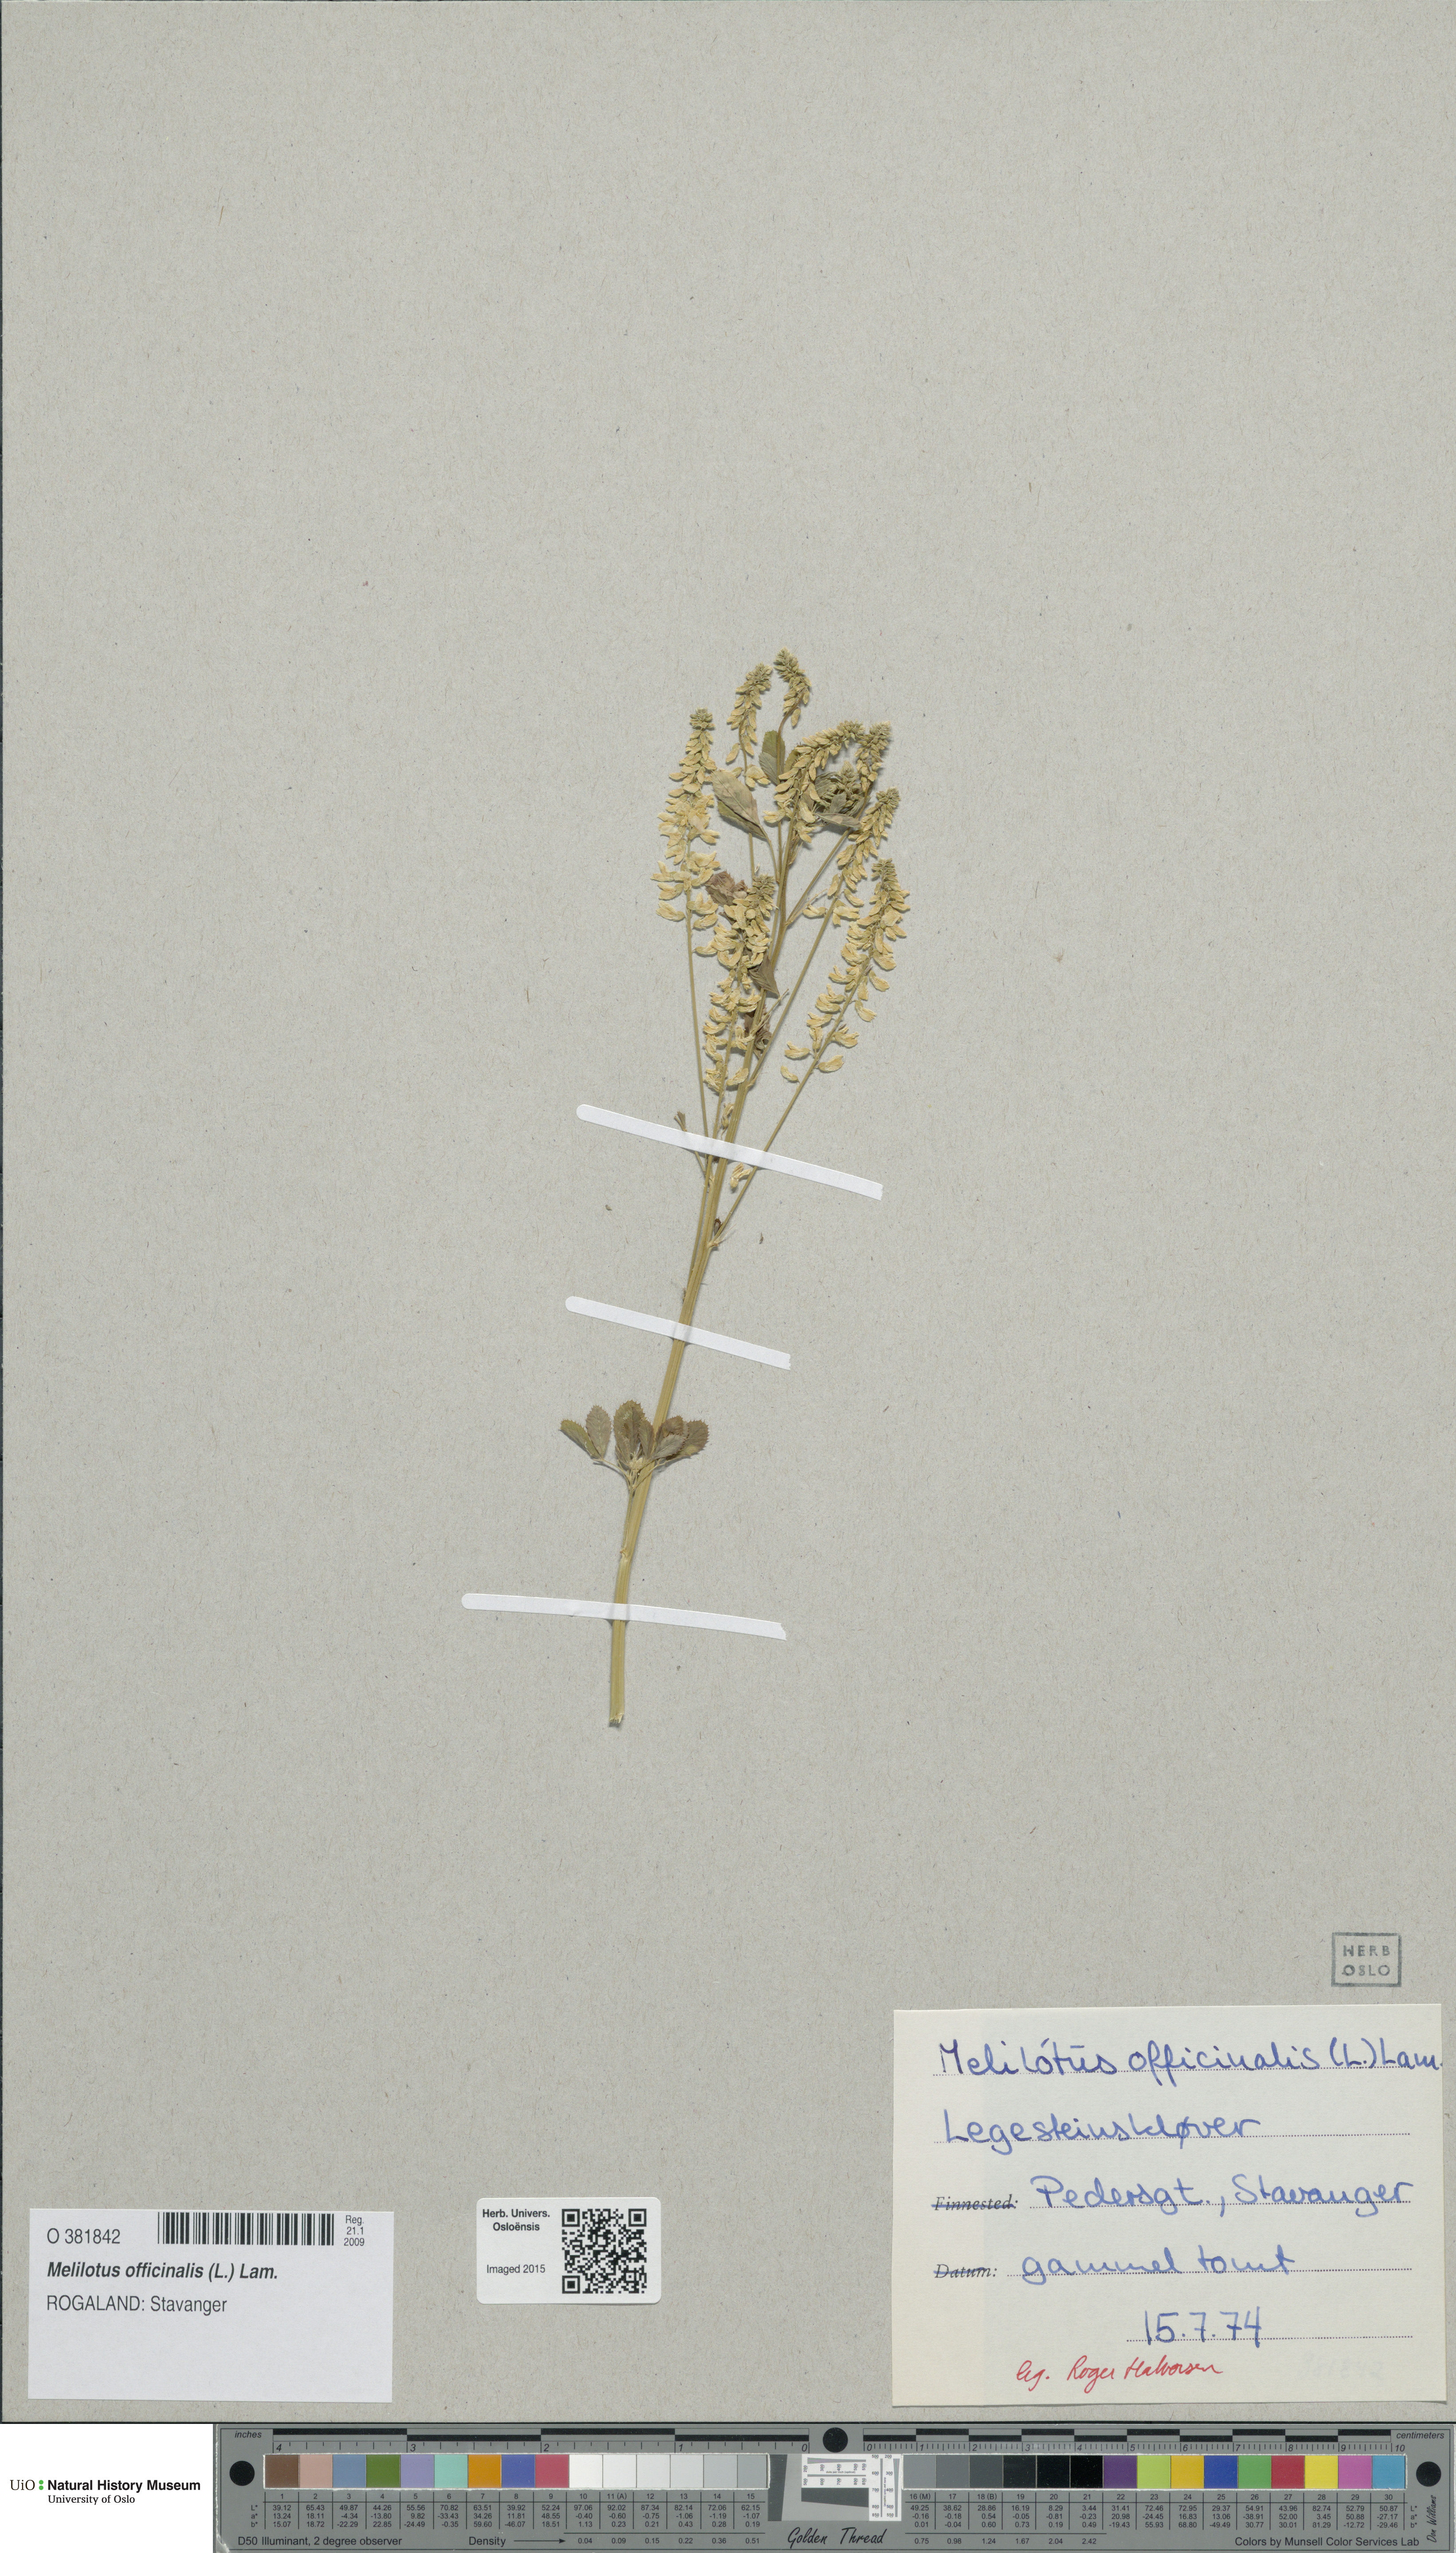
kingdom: Plantae
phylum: Tracheophyta
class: Magnoliopsida
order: Fabales
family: Fabaceae
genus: Melilotus
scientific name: Melilotus officinalis
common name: Sweetclover
